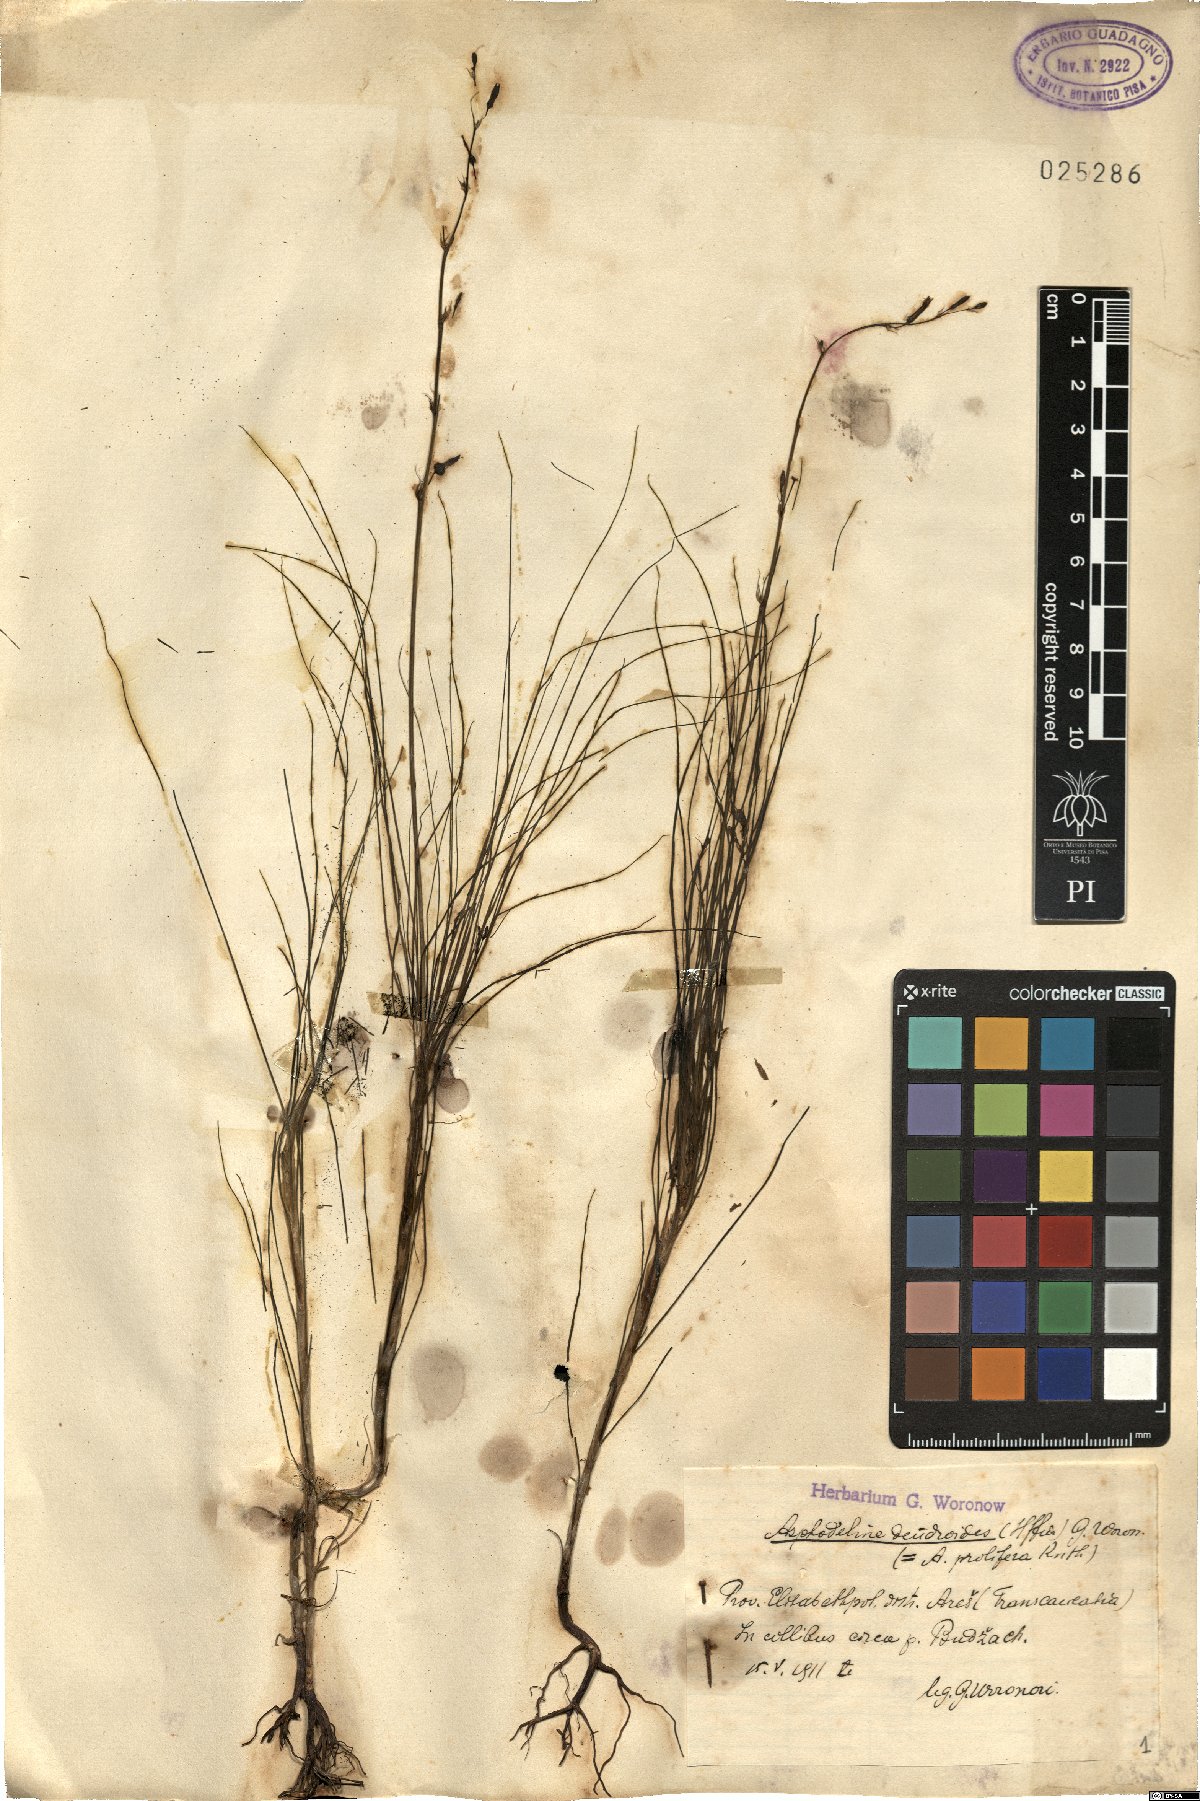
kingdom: Plantae
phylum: Tracheophyta
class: Liliopsida
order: Asparagales
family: Asphodelaceae
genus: Asphodeline
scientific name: Asphodeline prolifera
